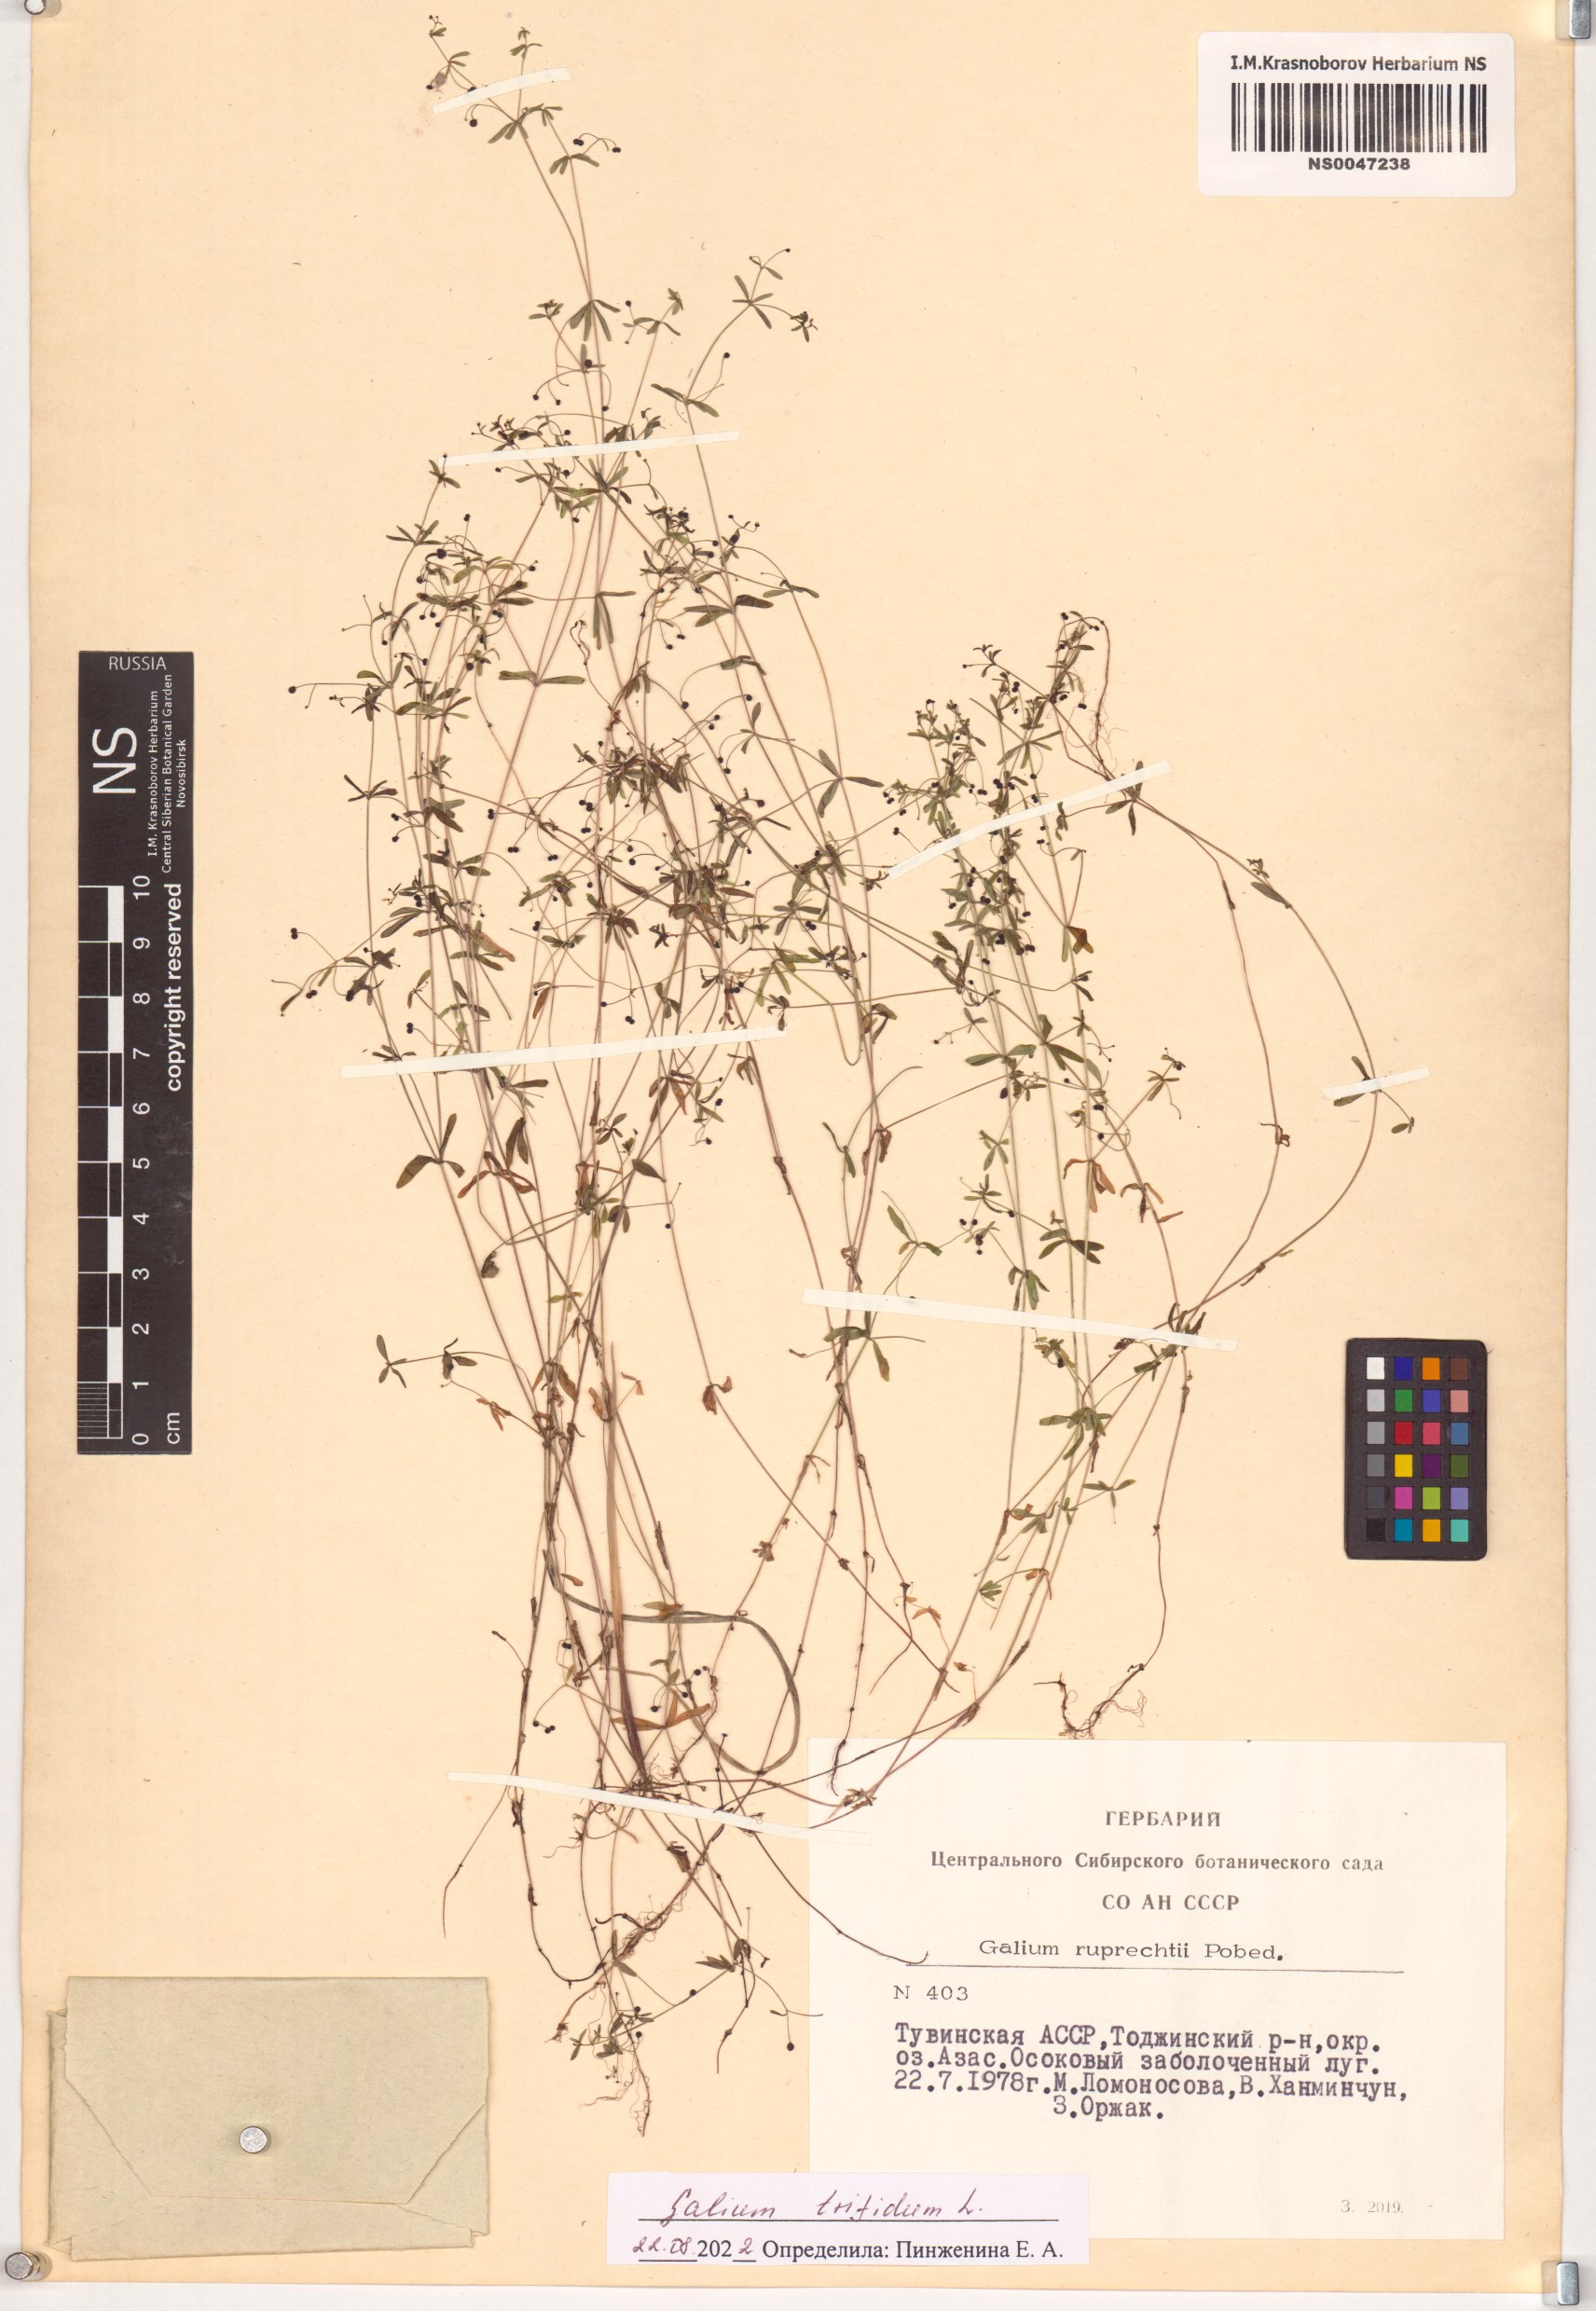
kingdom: Plantae
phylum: Tracheophyta
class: Magnoliopsida
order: Gentianales
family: Rubiaceae
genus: Galium
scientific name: Galium trifidum
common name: Small bedstraw
